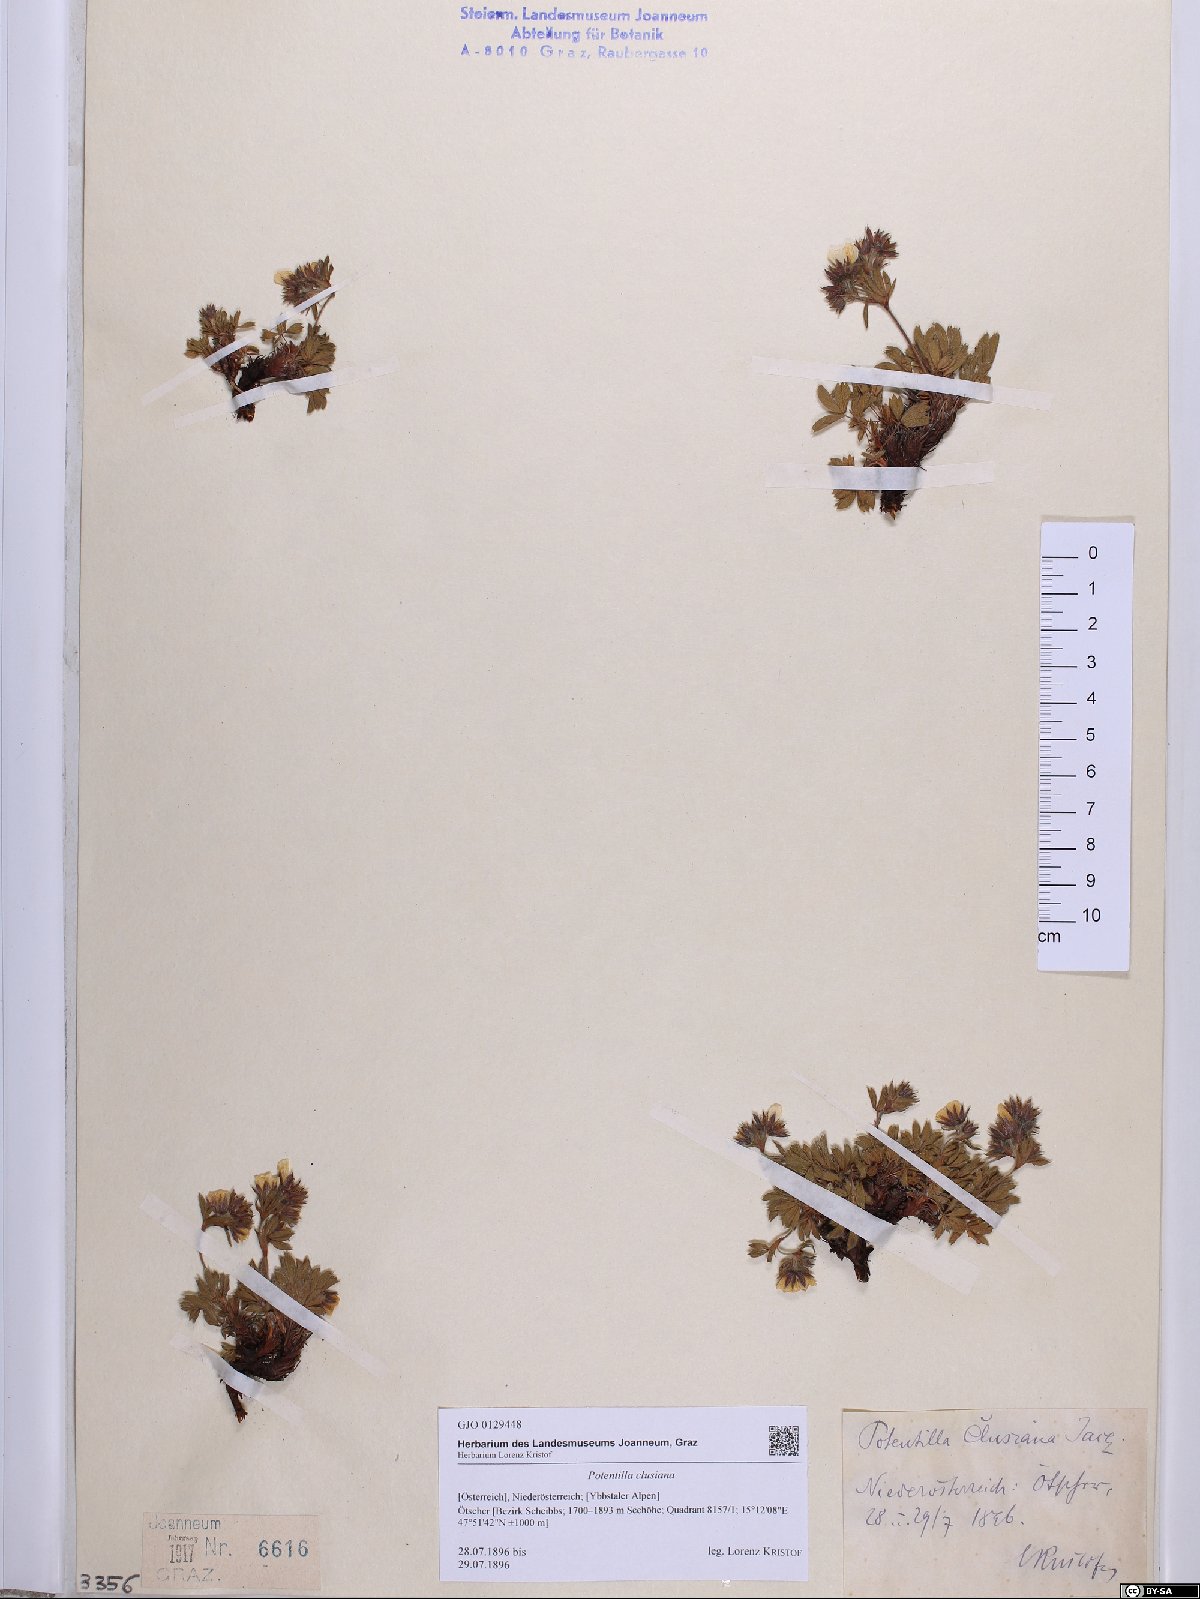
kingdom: Plantae
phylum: Tracheophyta
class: Magnoliopsida
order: Rosales
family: Rosaceae
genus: Potentilla
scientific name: Potentilla clusiana
